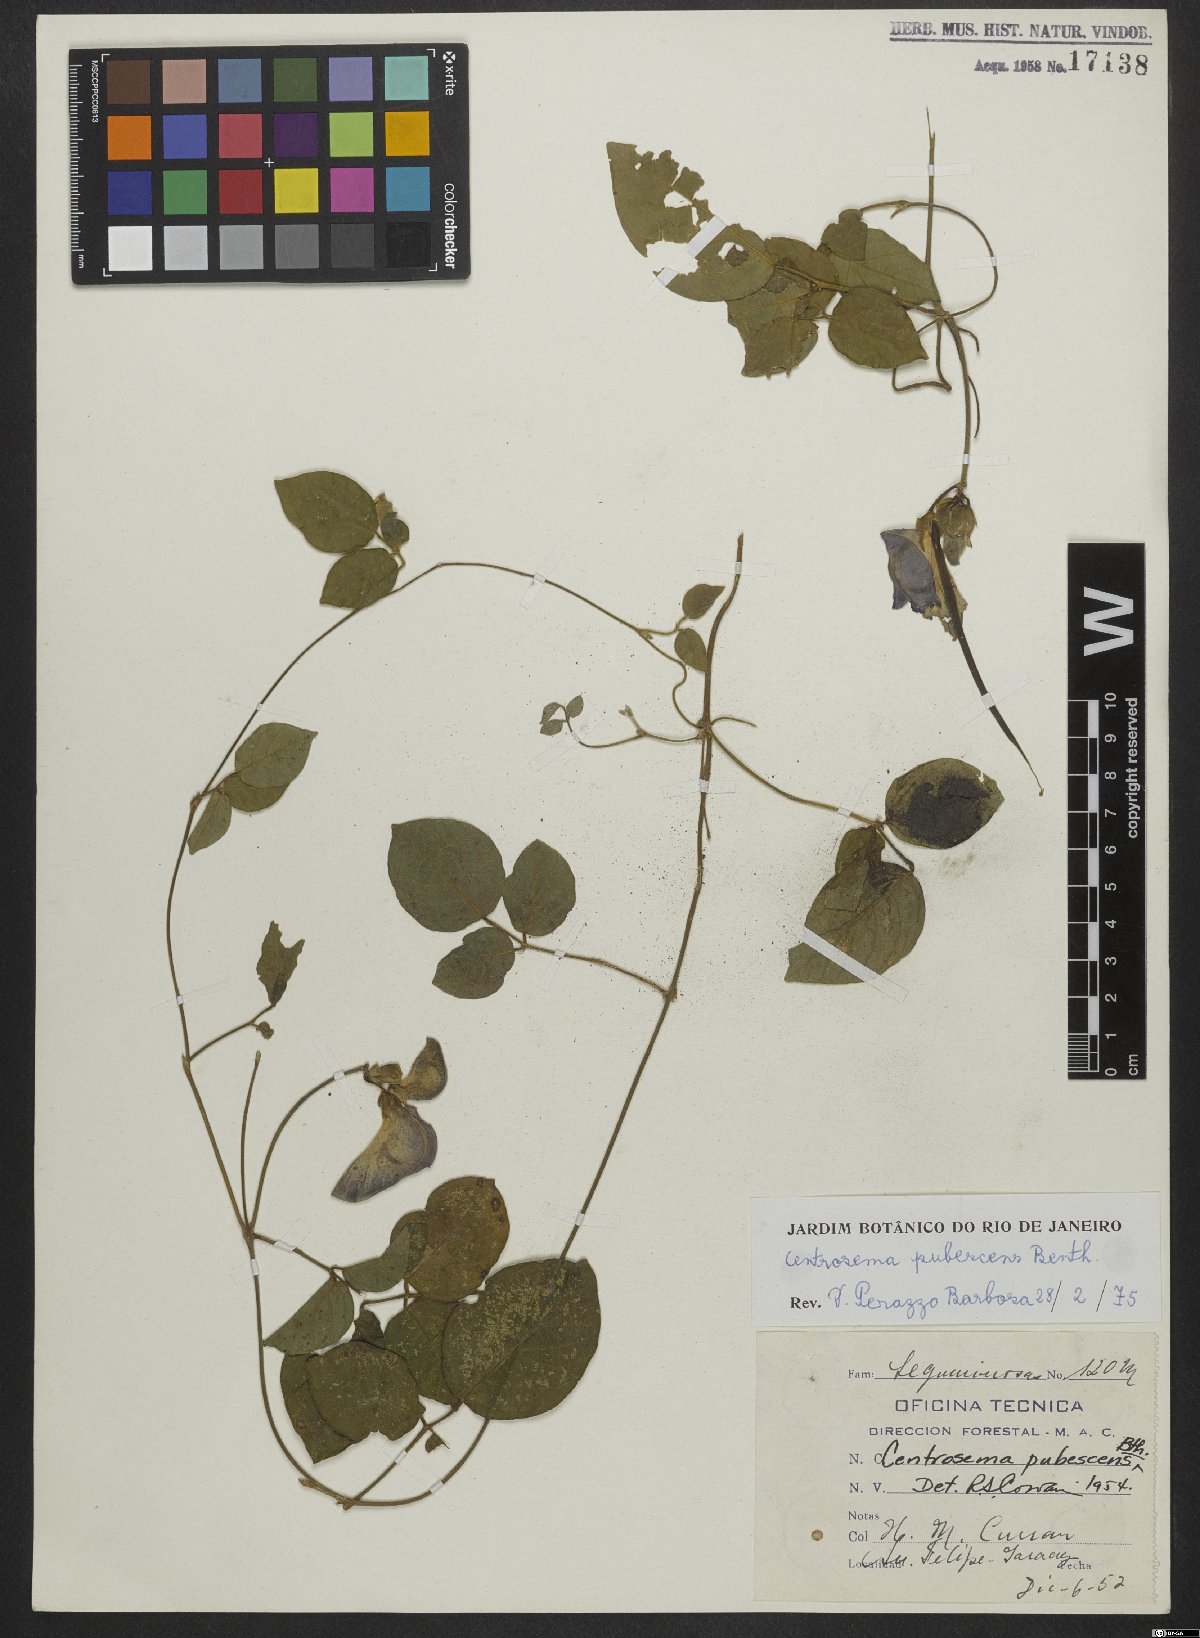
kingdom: Plantae
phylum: Tracheophyta
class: Magnoliopsida
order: Fabales
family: Fabaceae
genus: Centrosema
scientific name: Centrosema pubescens
